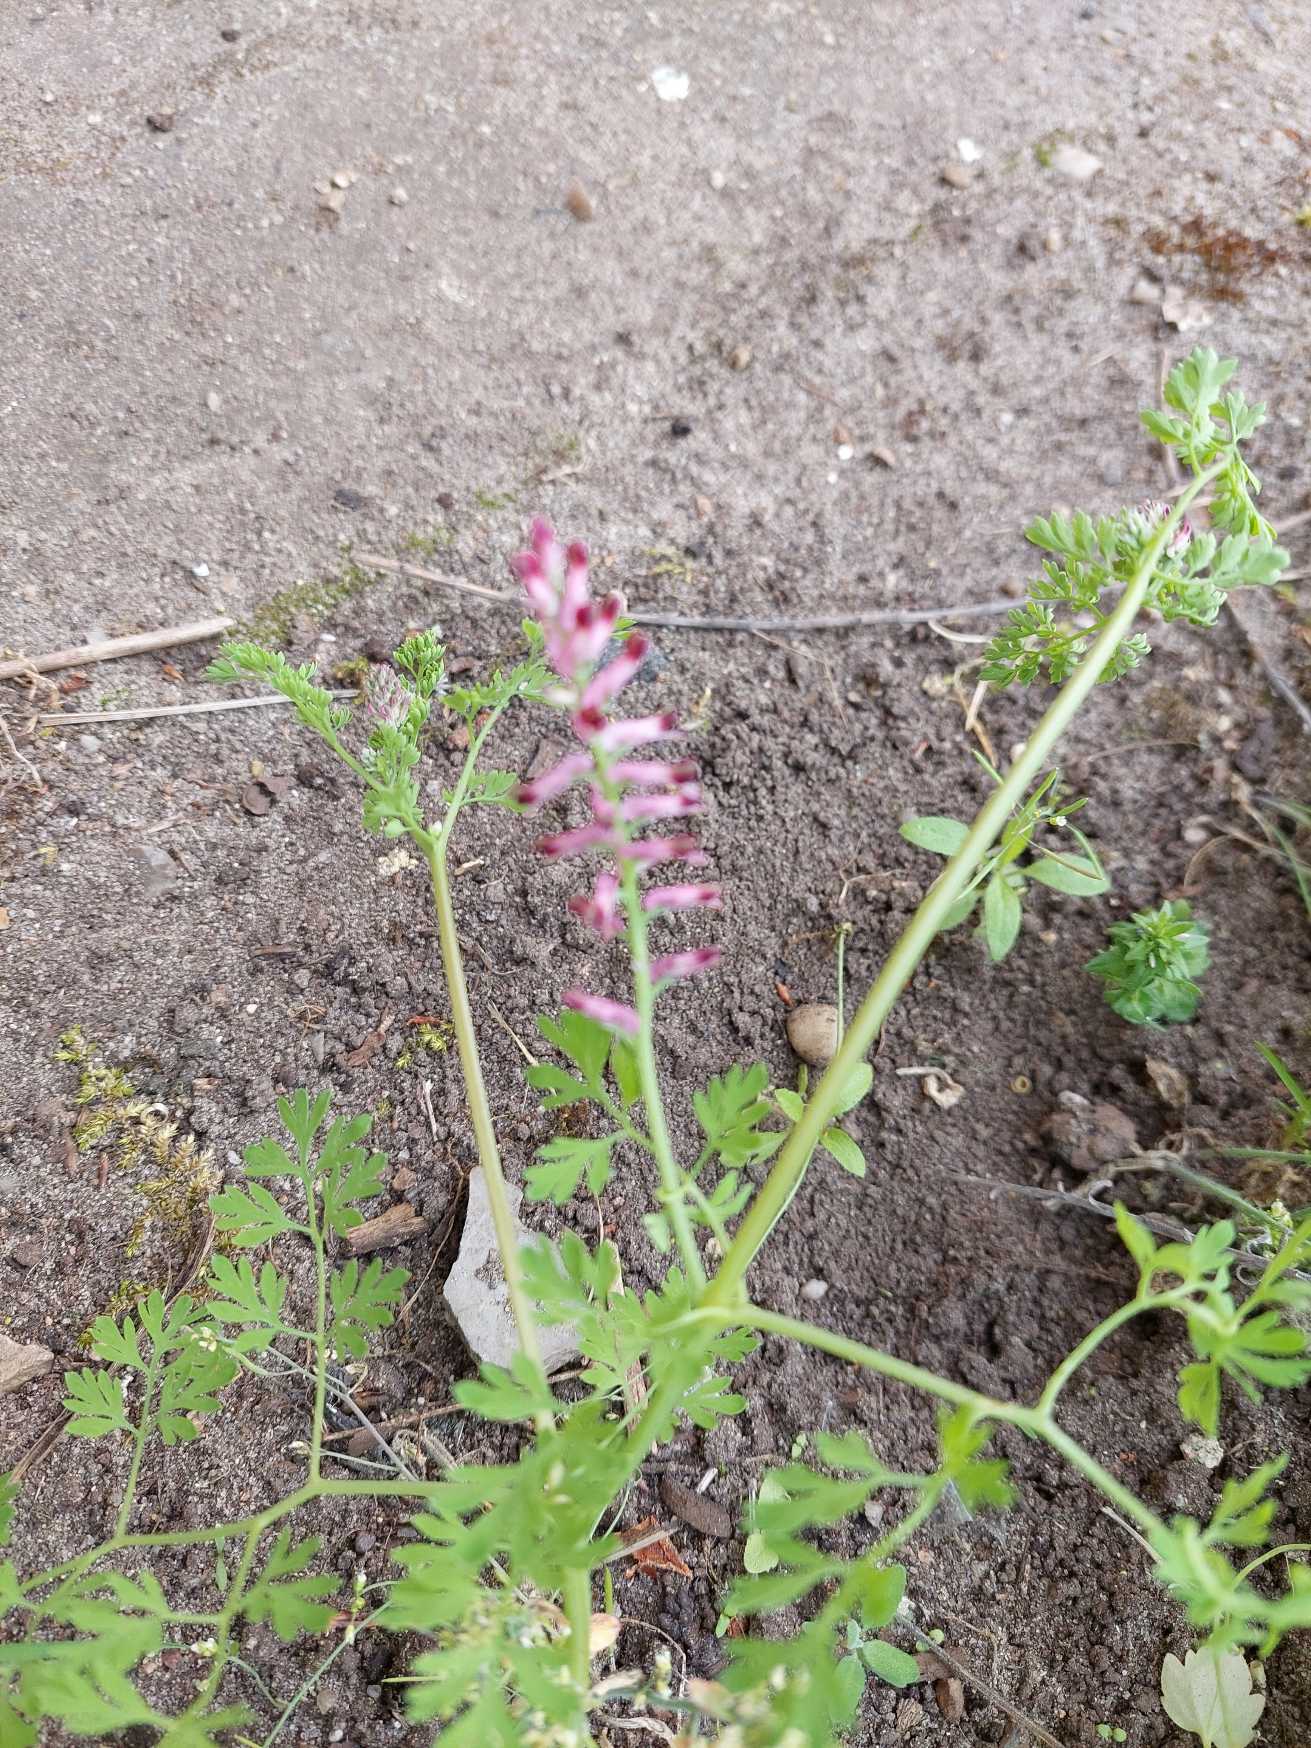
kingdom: Plantae
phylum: Tracheophyta
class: Magnoliopsida
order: Ranunculales
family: Papaveraceae
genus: Fumaria
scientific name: Fumaria
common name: Jordrøgslægten
